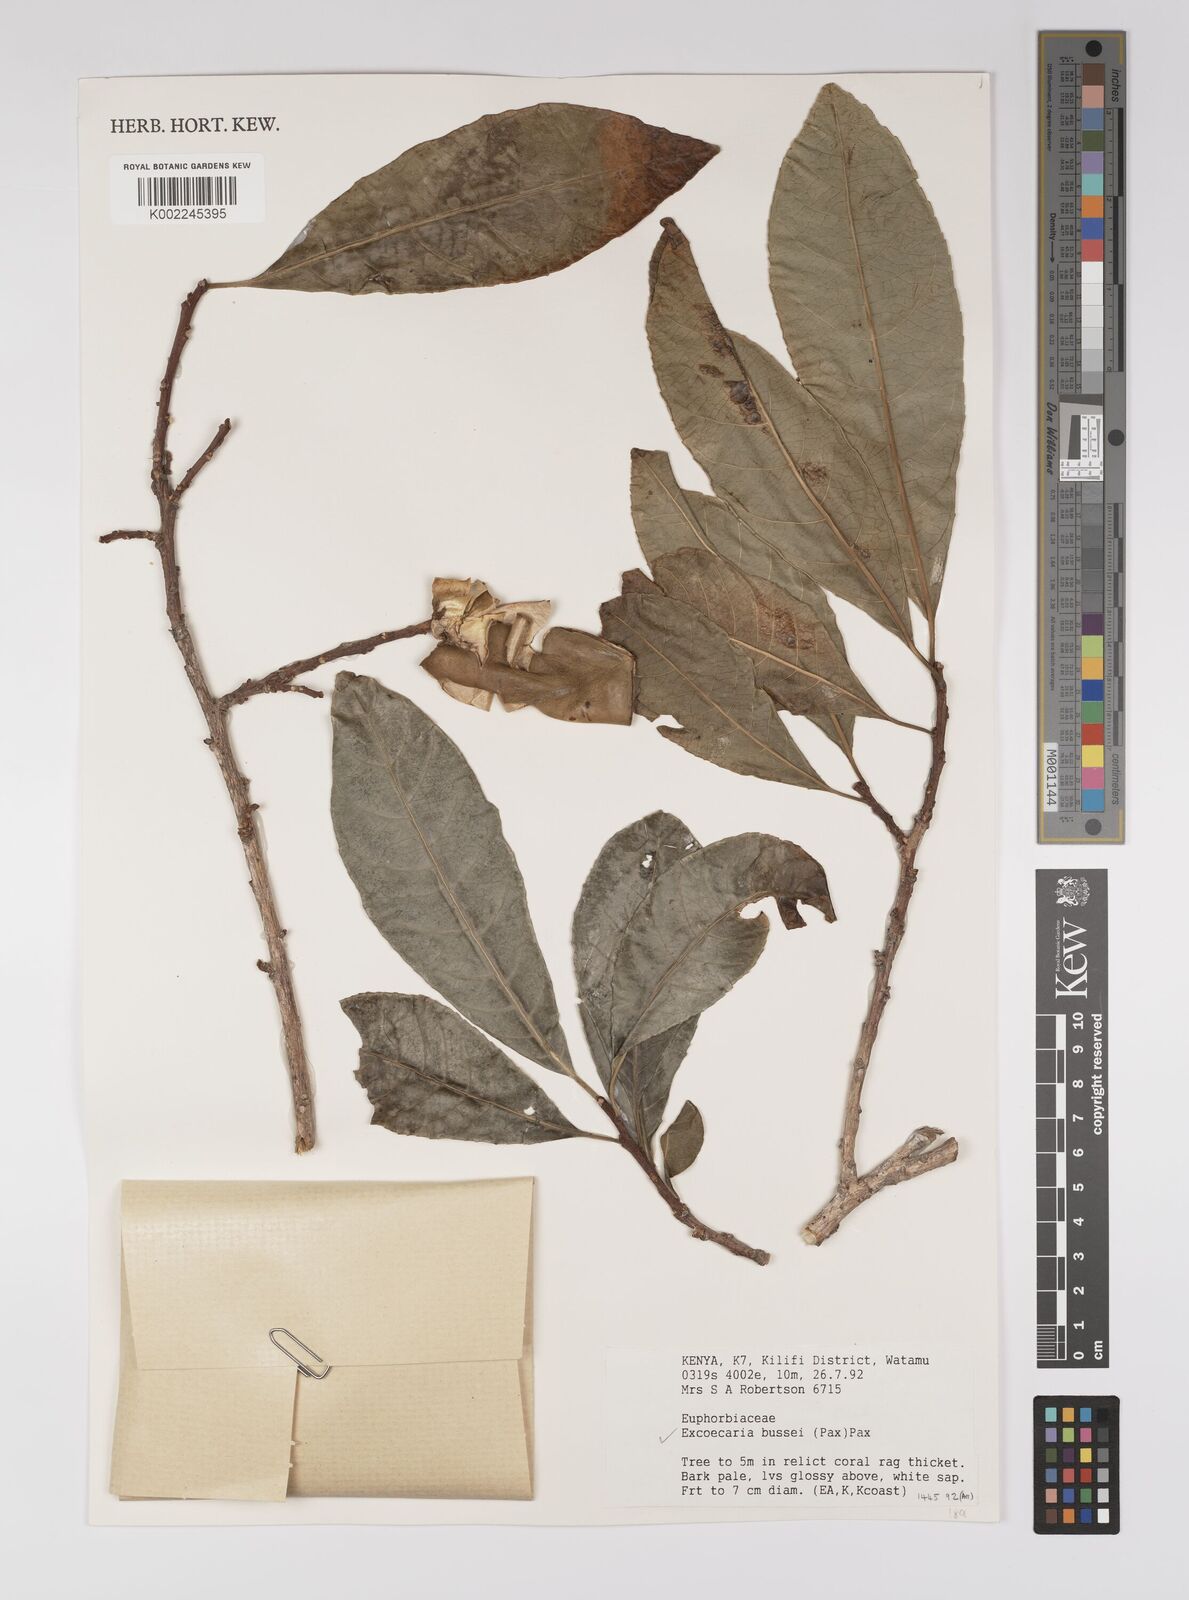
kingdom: Plantae
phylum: Tracheophyta
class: Magnoliopsida
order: Malpighiales
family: Euphorbiaceae
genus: Excoecaria
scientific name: Excoecaria bussei
